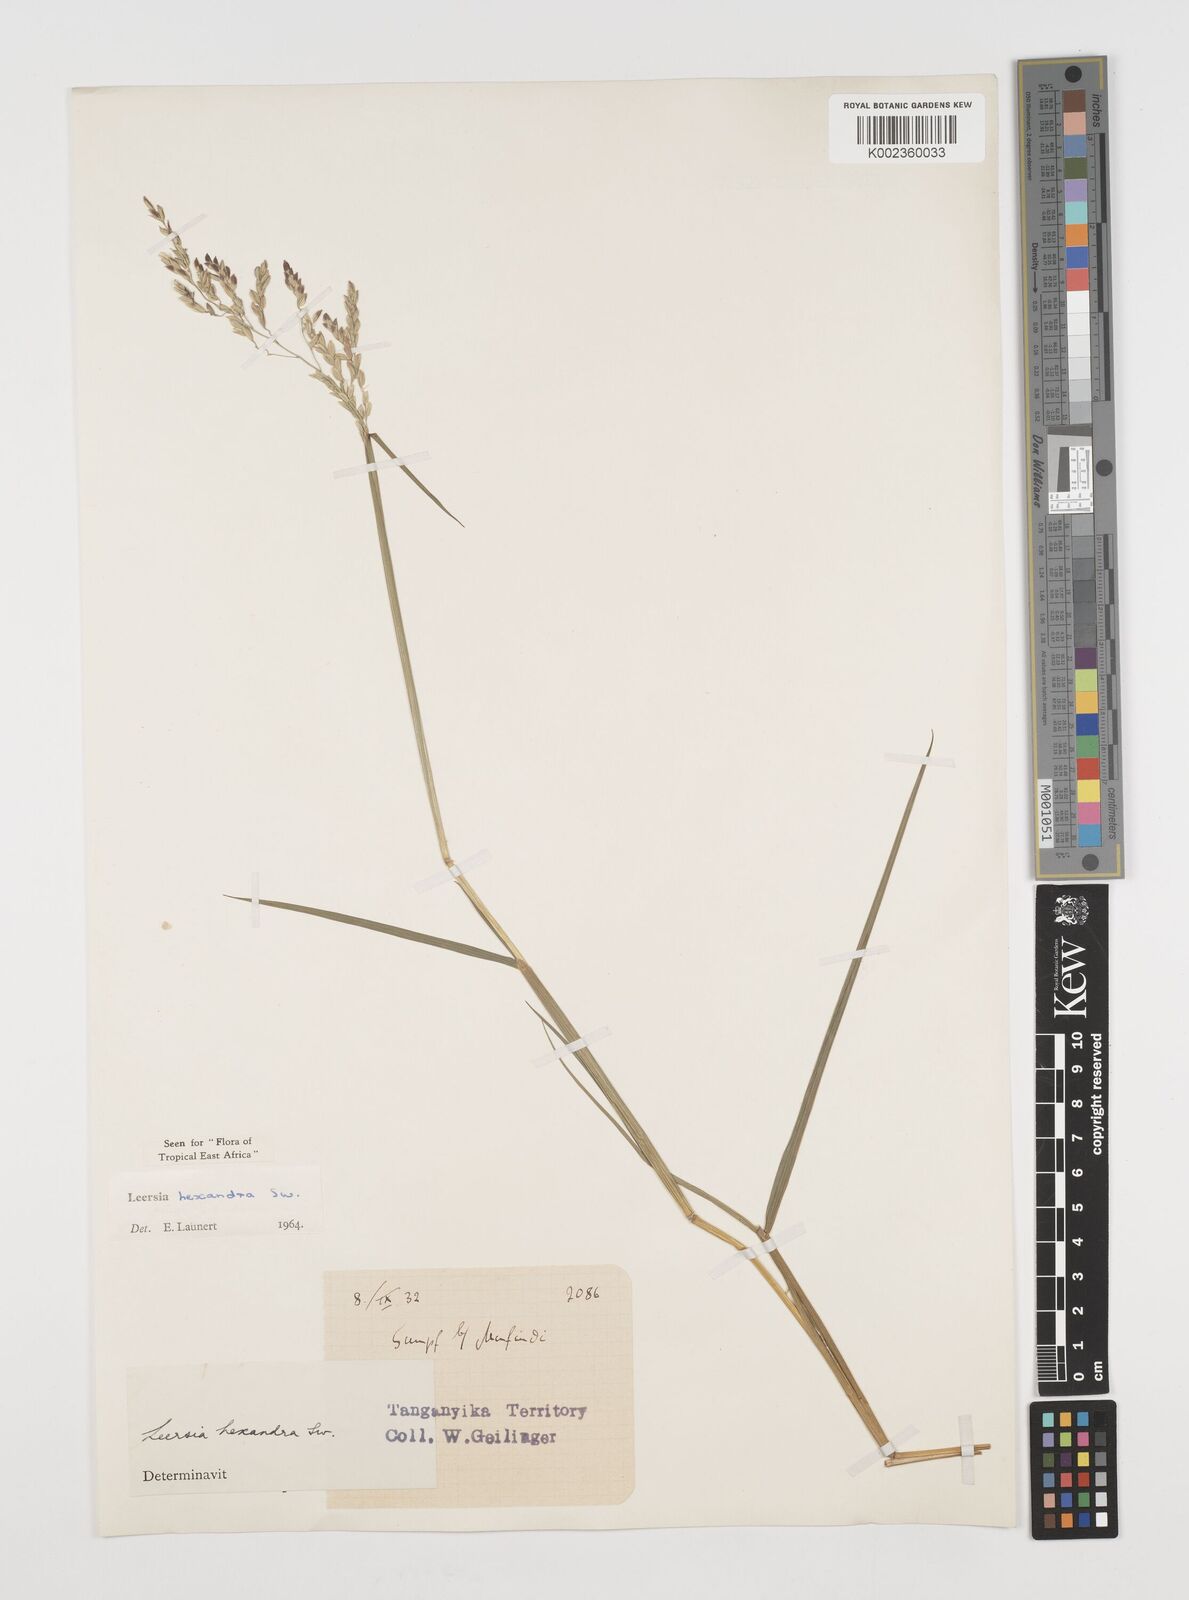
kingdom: Plantae
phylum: Tracheophyta
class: Liliopsida
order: Poales
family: Poaceae
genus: Leersia
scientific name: Leersia hexandra
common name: Southern cut grass
